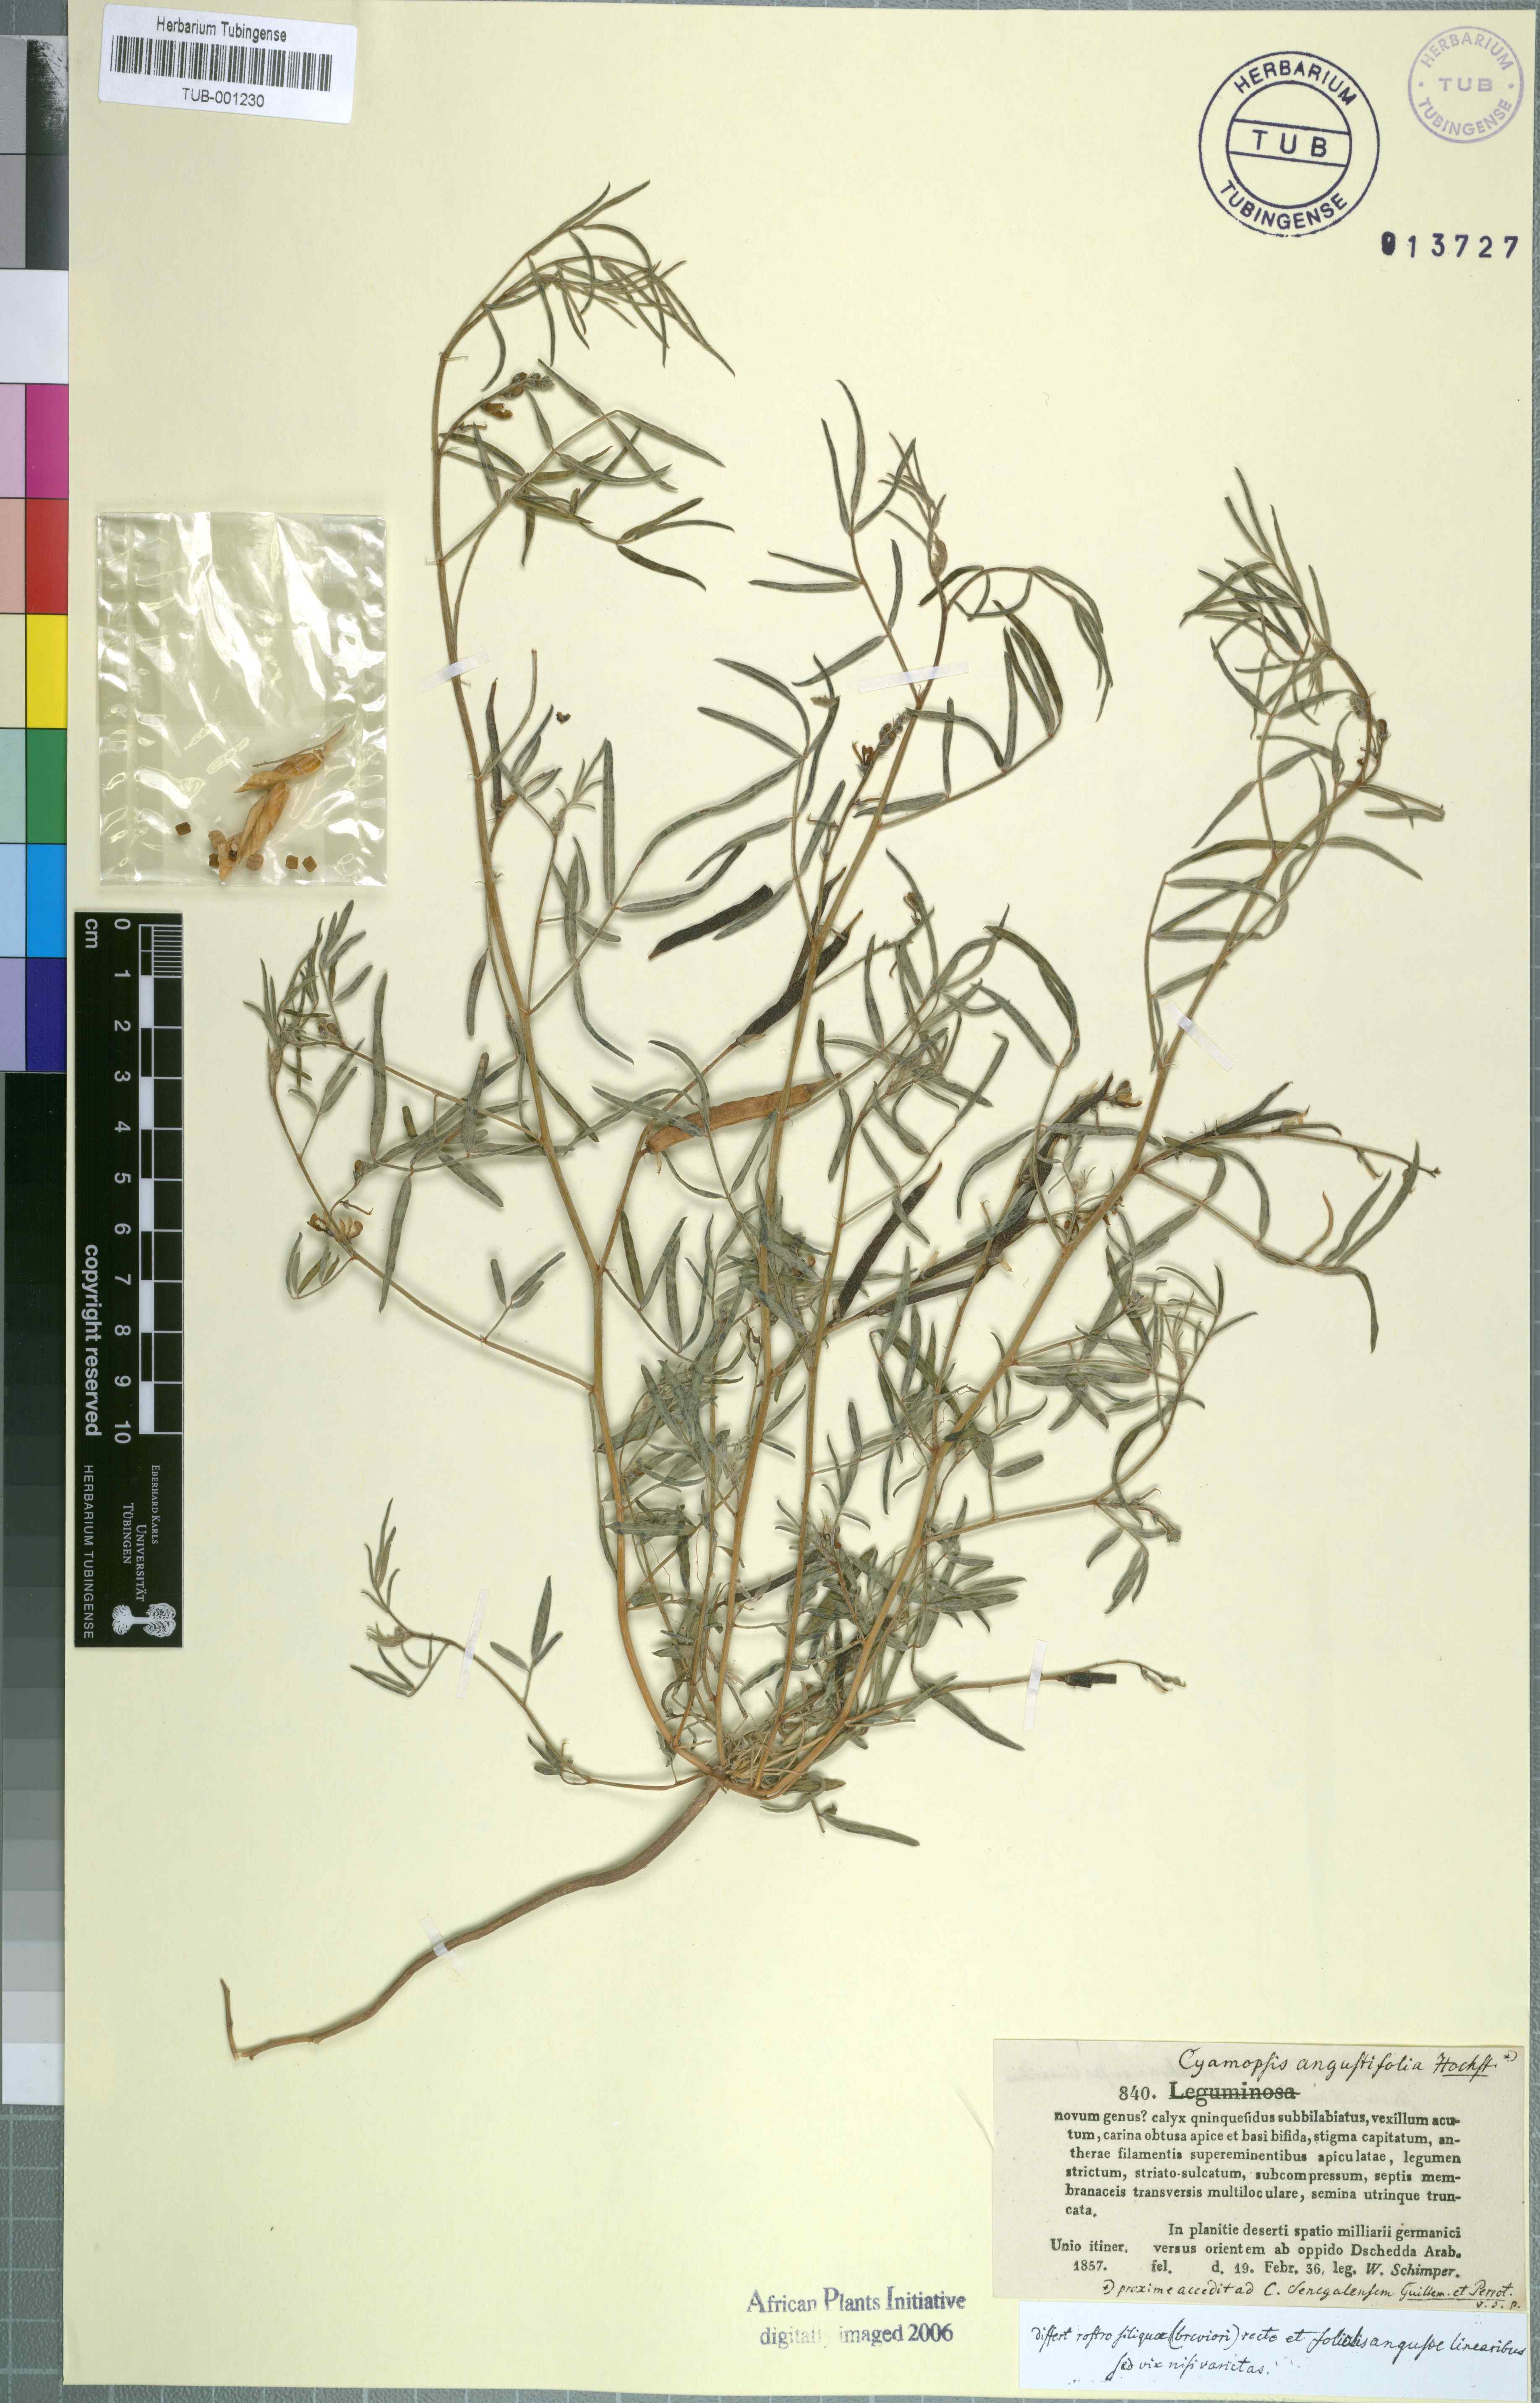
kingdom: Plantae
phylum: Tracheophyta
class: Magnoliopsida
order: Fabales
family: Fabaceae
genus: Cyamopsis
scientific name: Cyamopsis senegalensis
